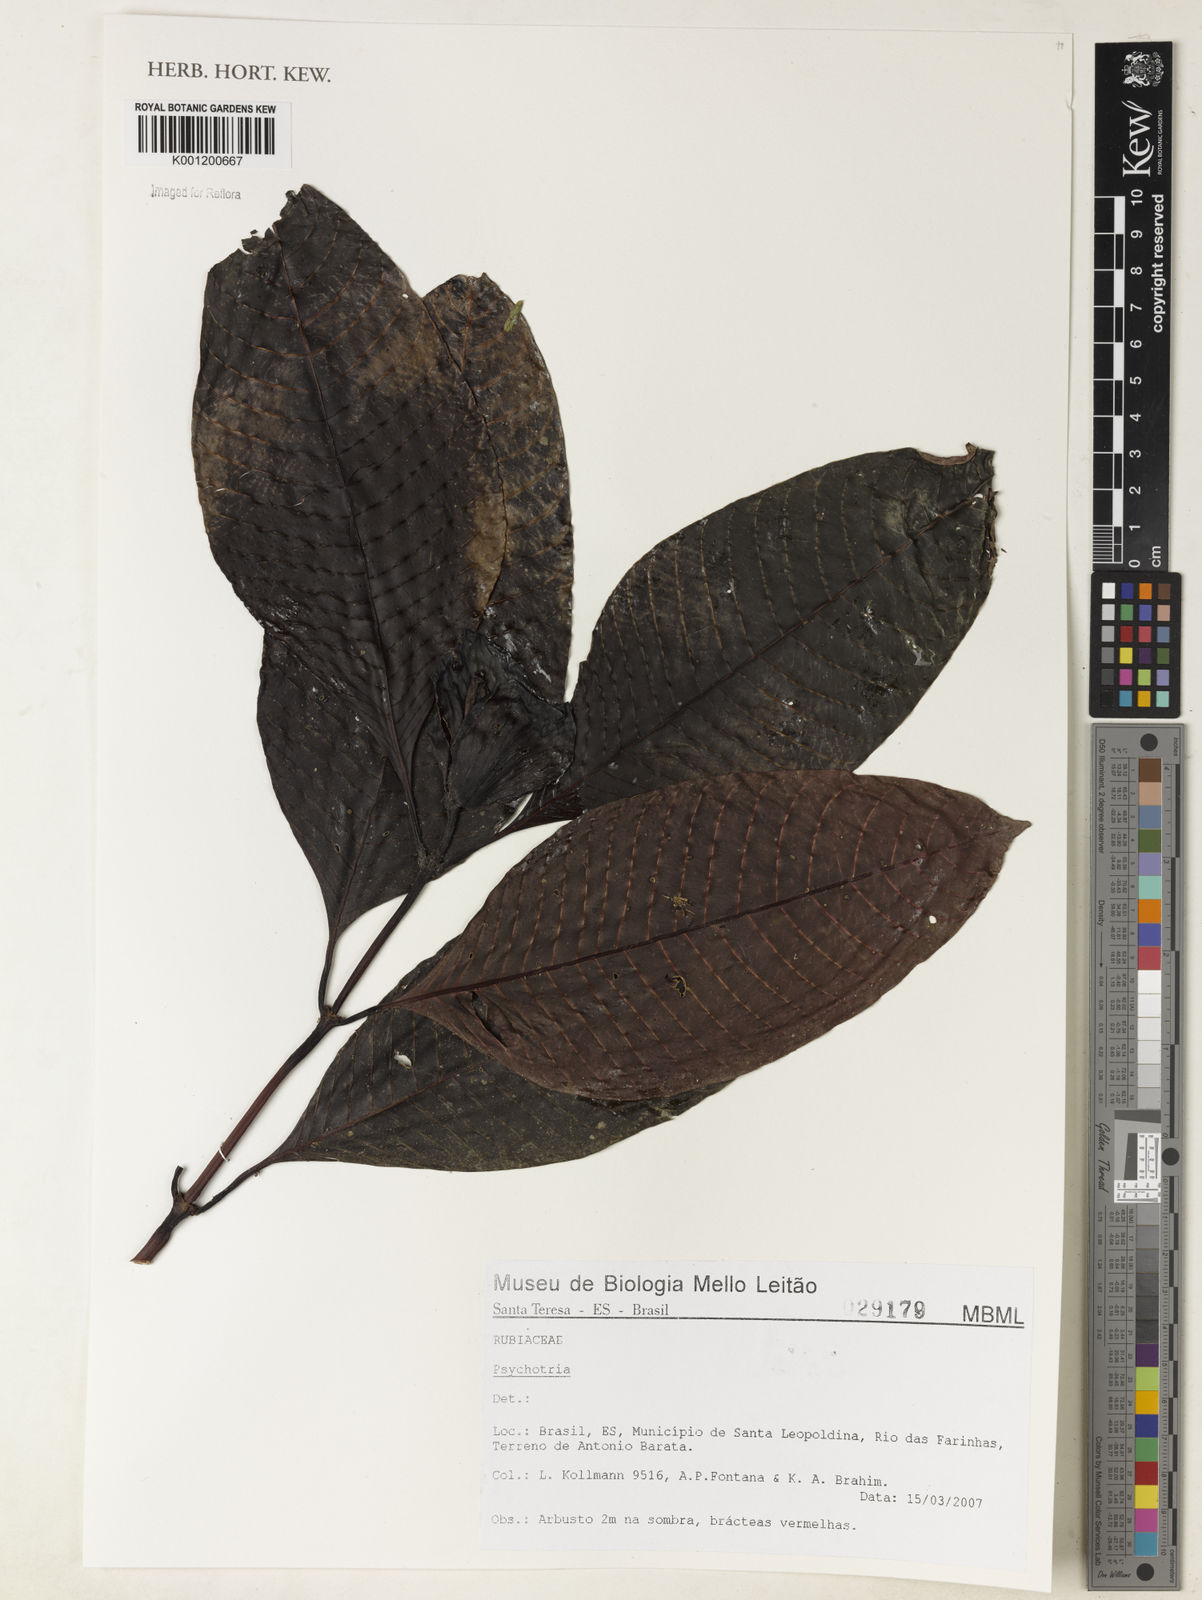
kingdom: Plantae
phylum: Tracheophyta
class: Magnoliopsida
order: Gentianales
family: Rubiaceae
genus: Psychotria
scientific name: Psychotria
